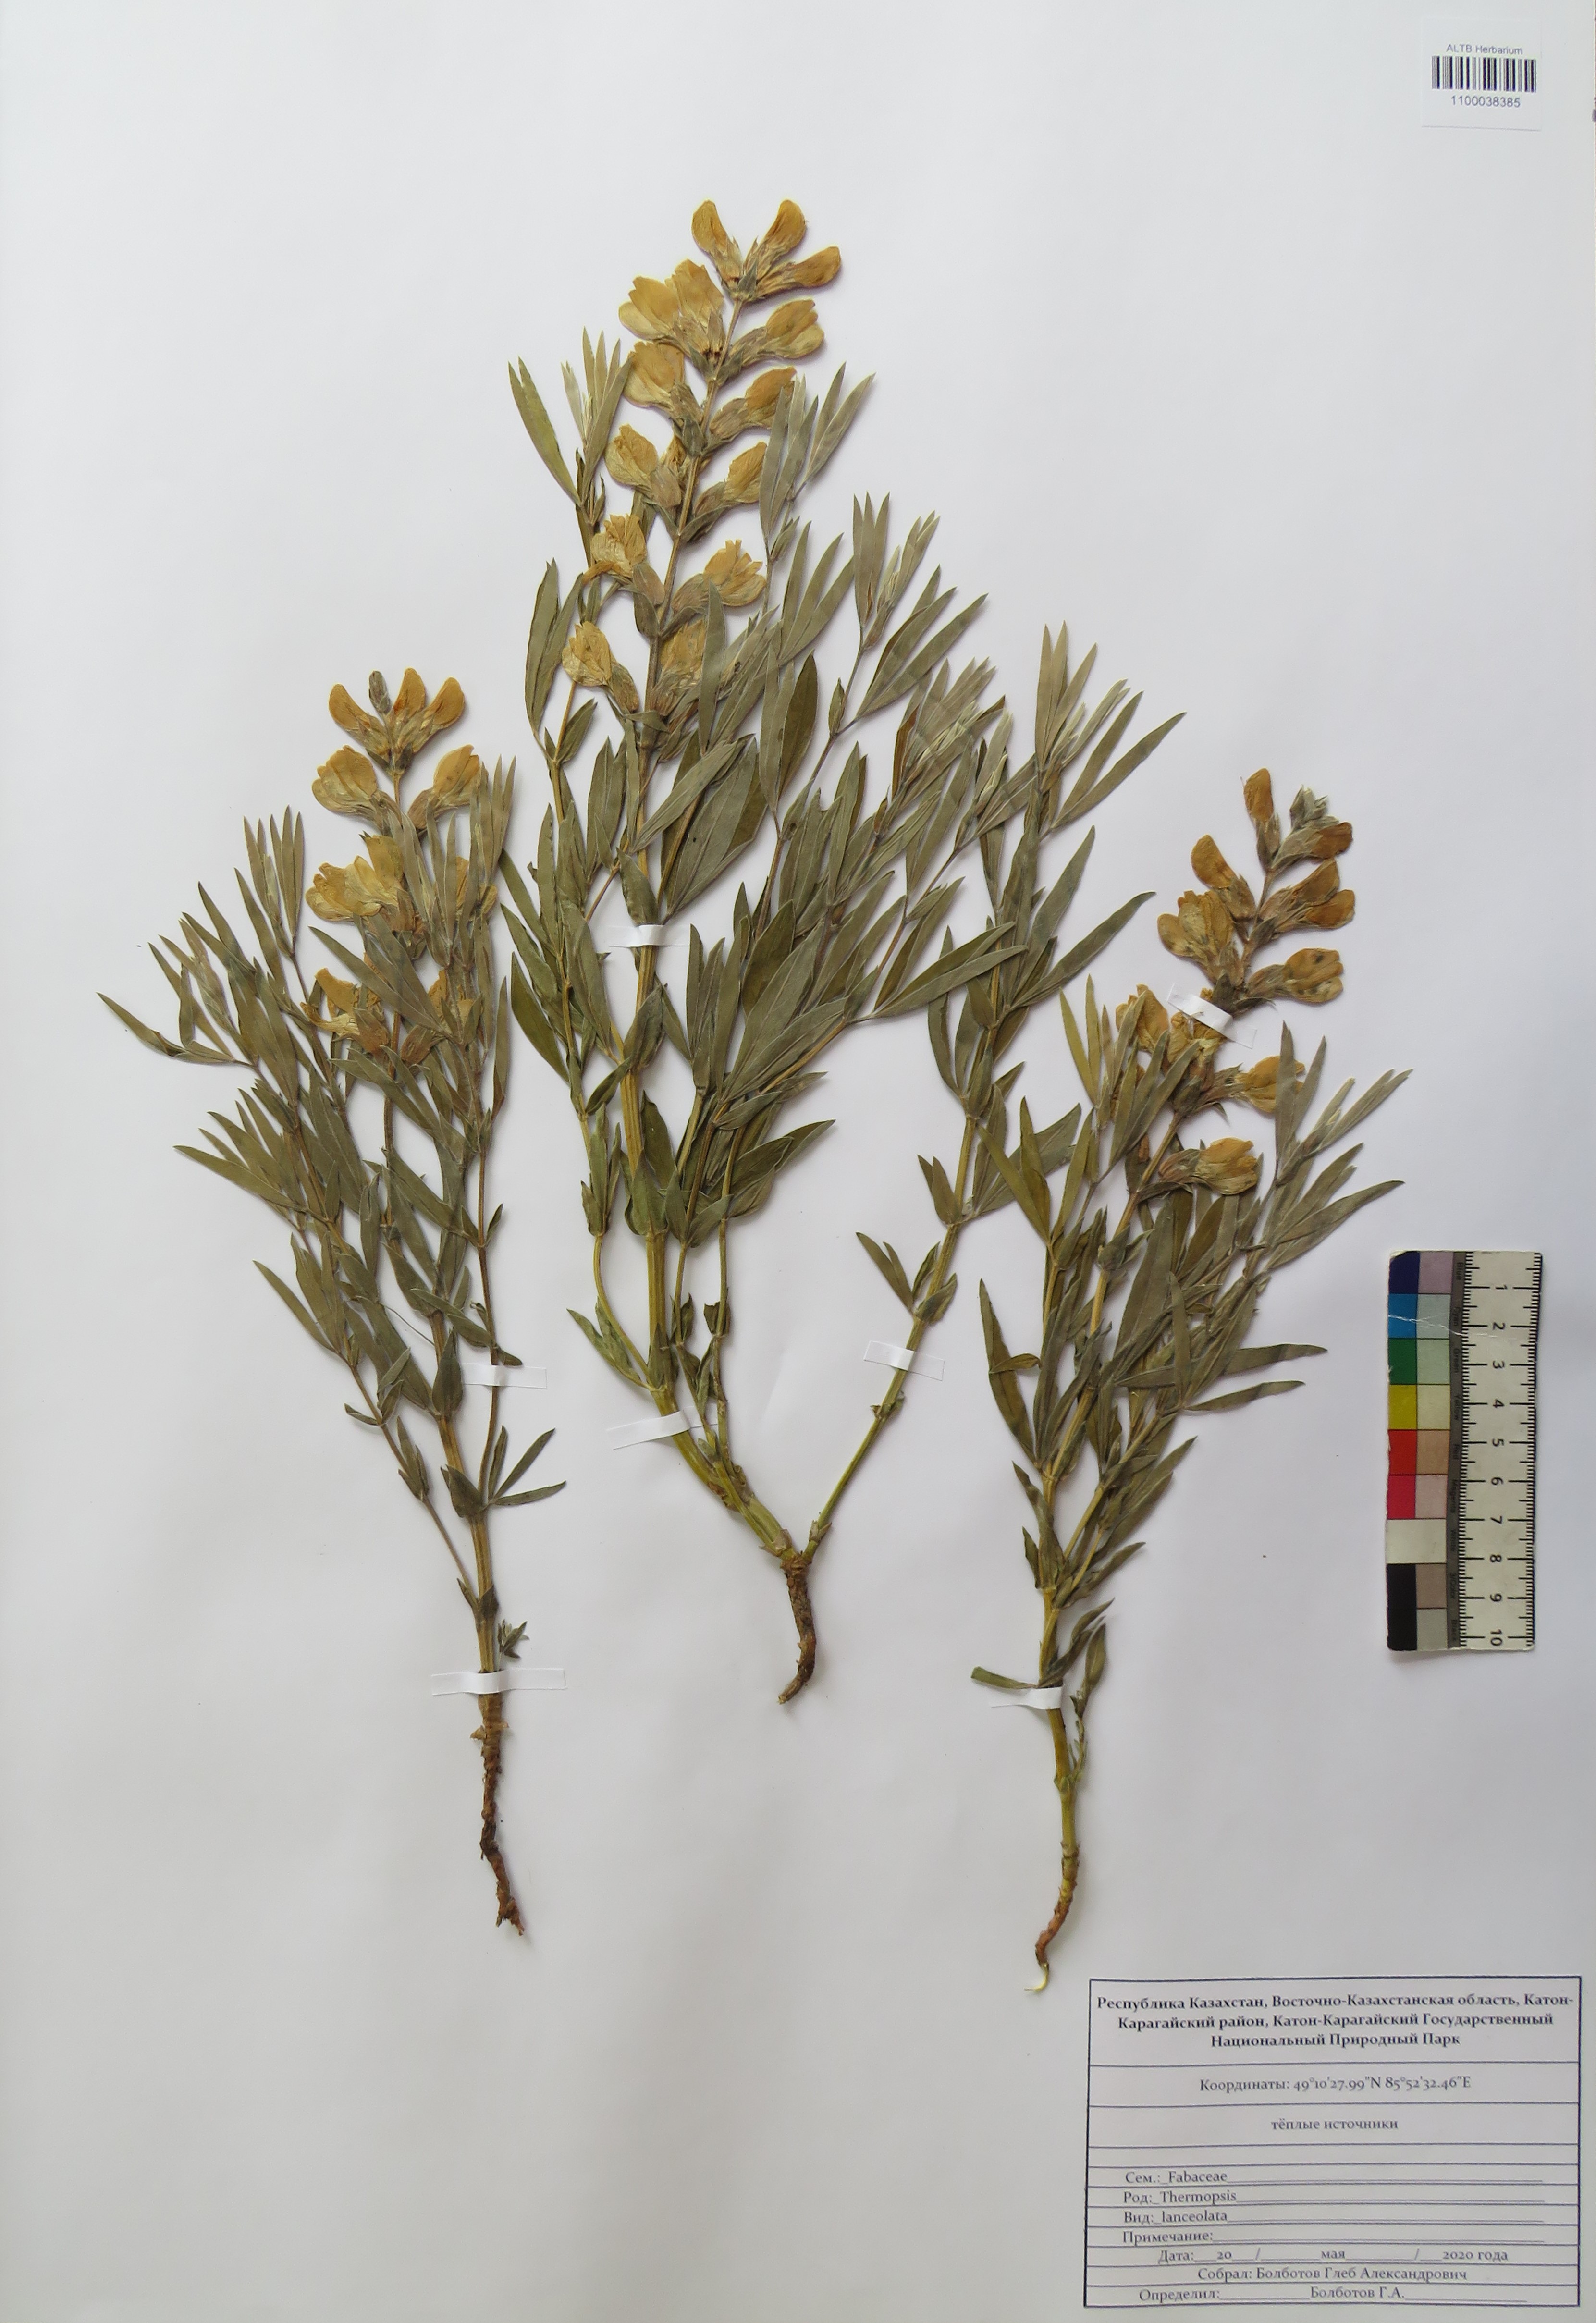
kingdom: Plantae
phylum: Tracheophyta
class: Magnoliopsida
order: Fabales
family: Fabaceae
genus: Thermopsis
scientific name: Thermopsis lanceolata
